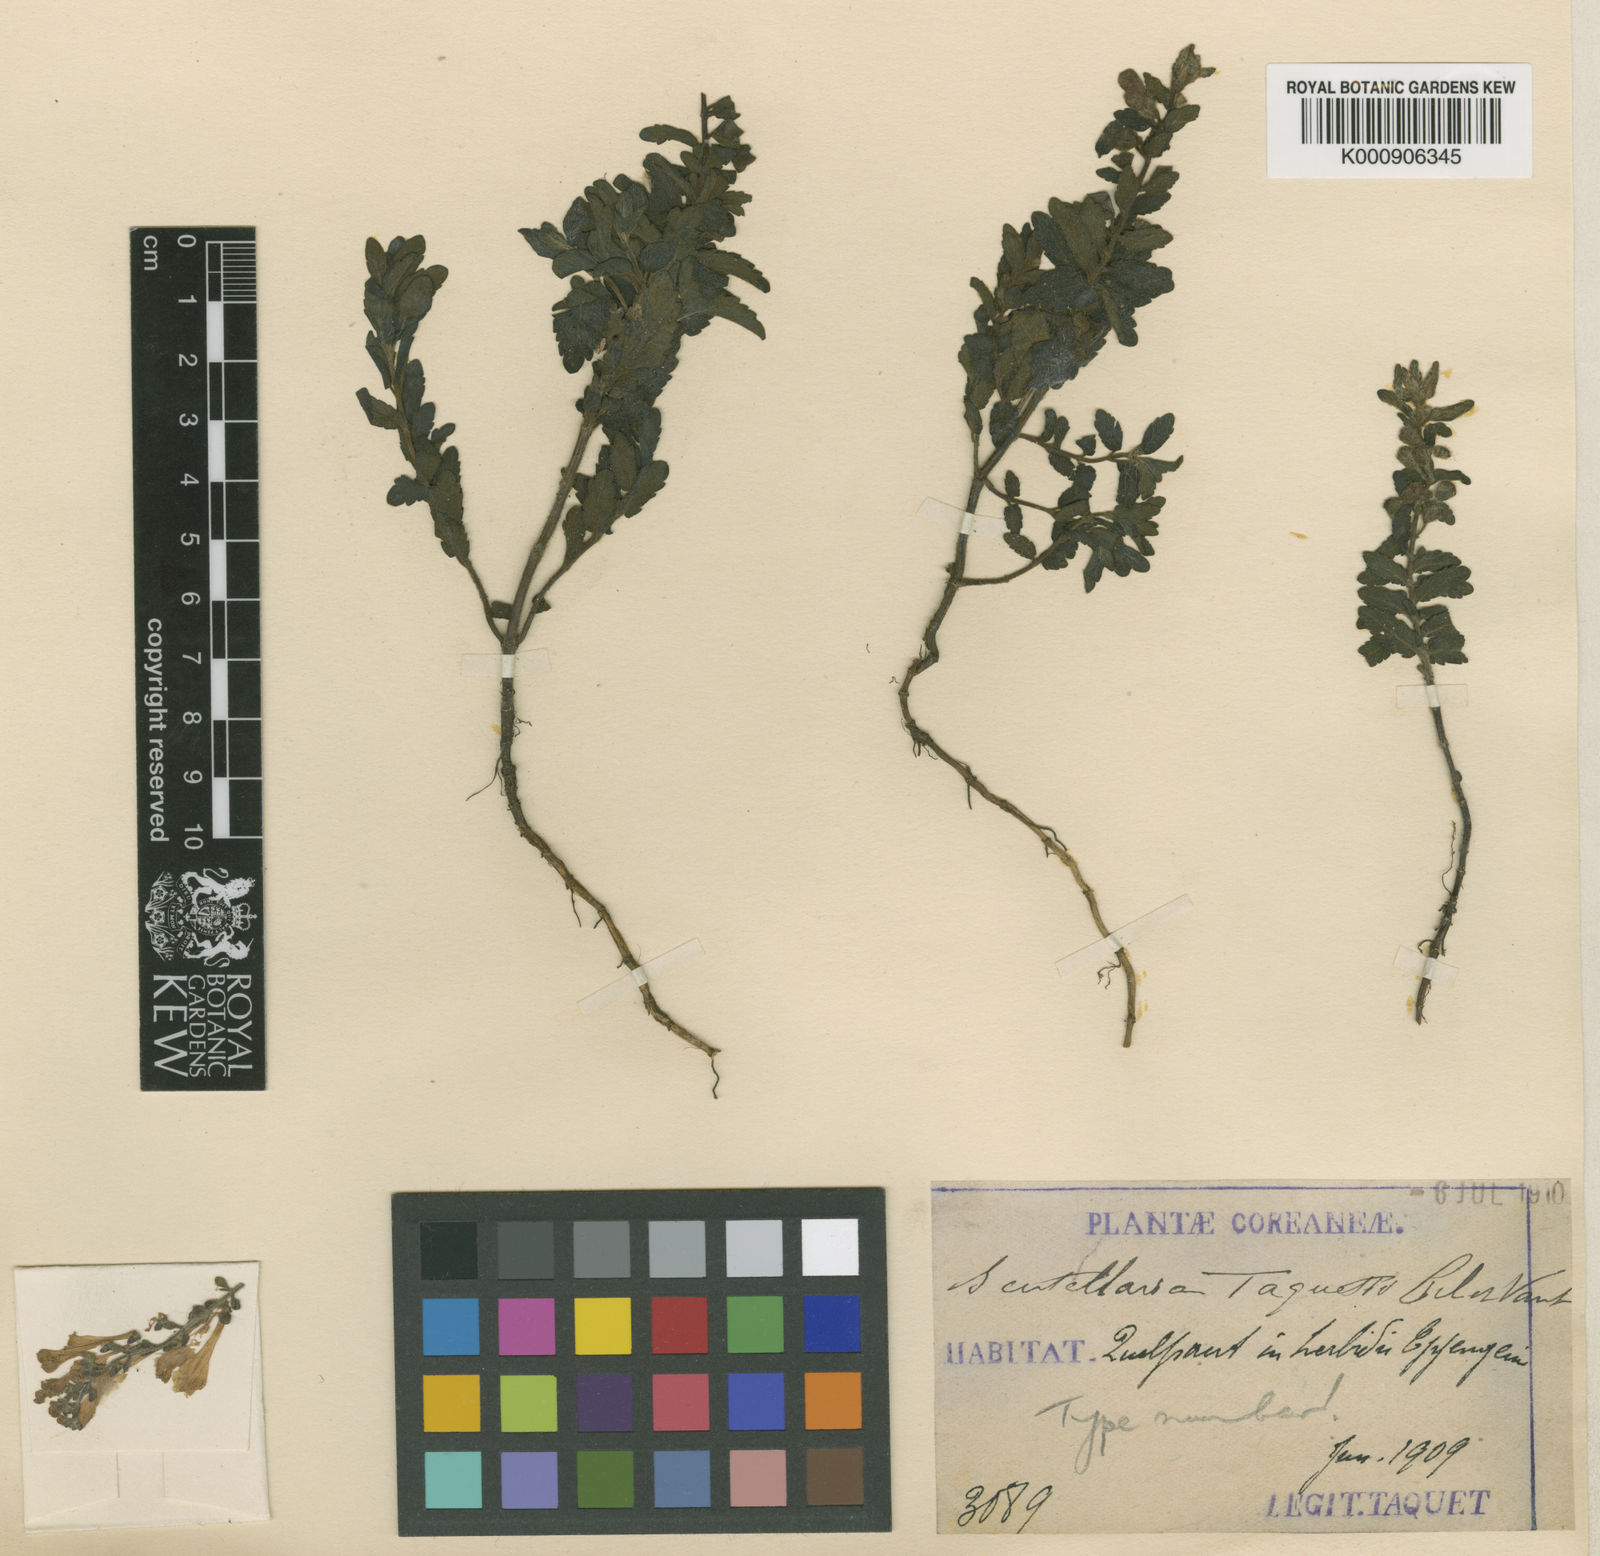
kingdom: Plantae
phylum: Tracheophyta
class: Magnoliopsida
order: Lamiales
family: Lamiaceae
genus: Scutellaria
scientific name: Scutellaria
